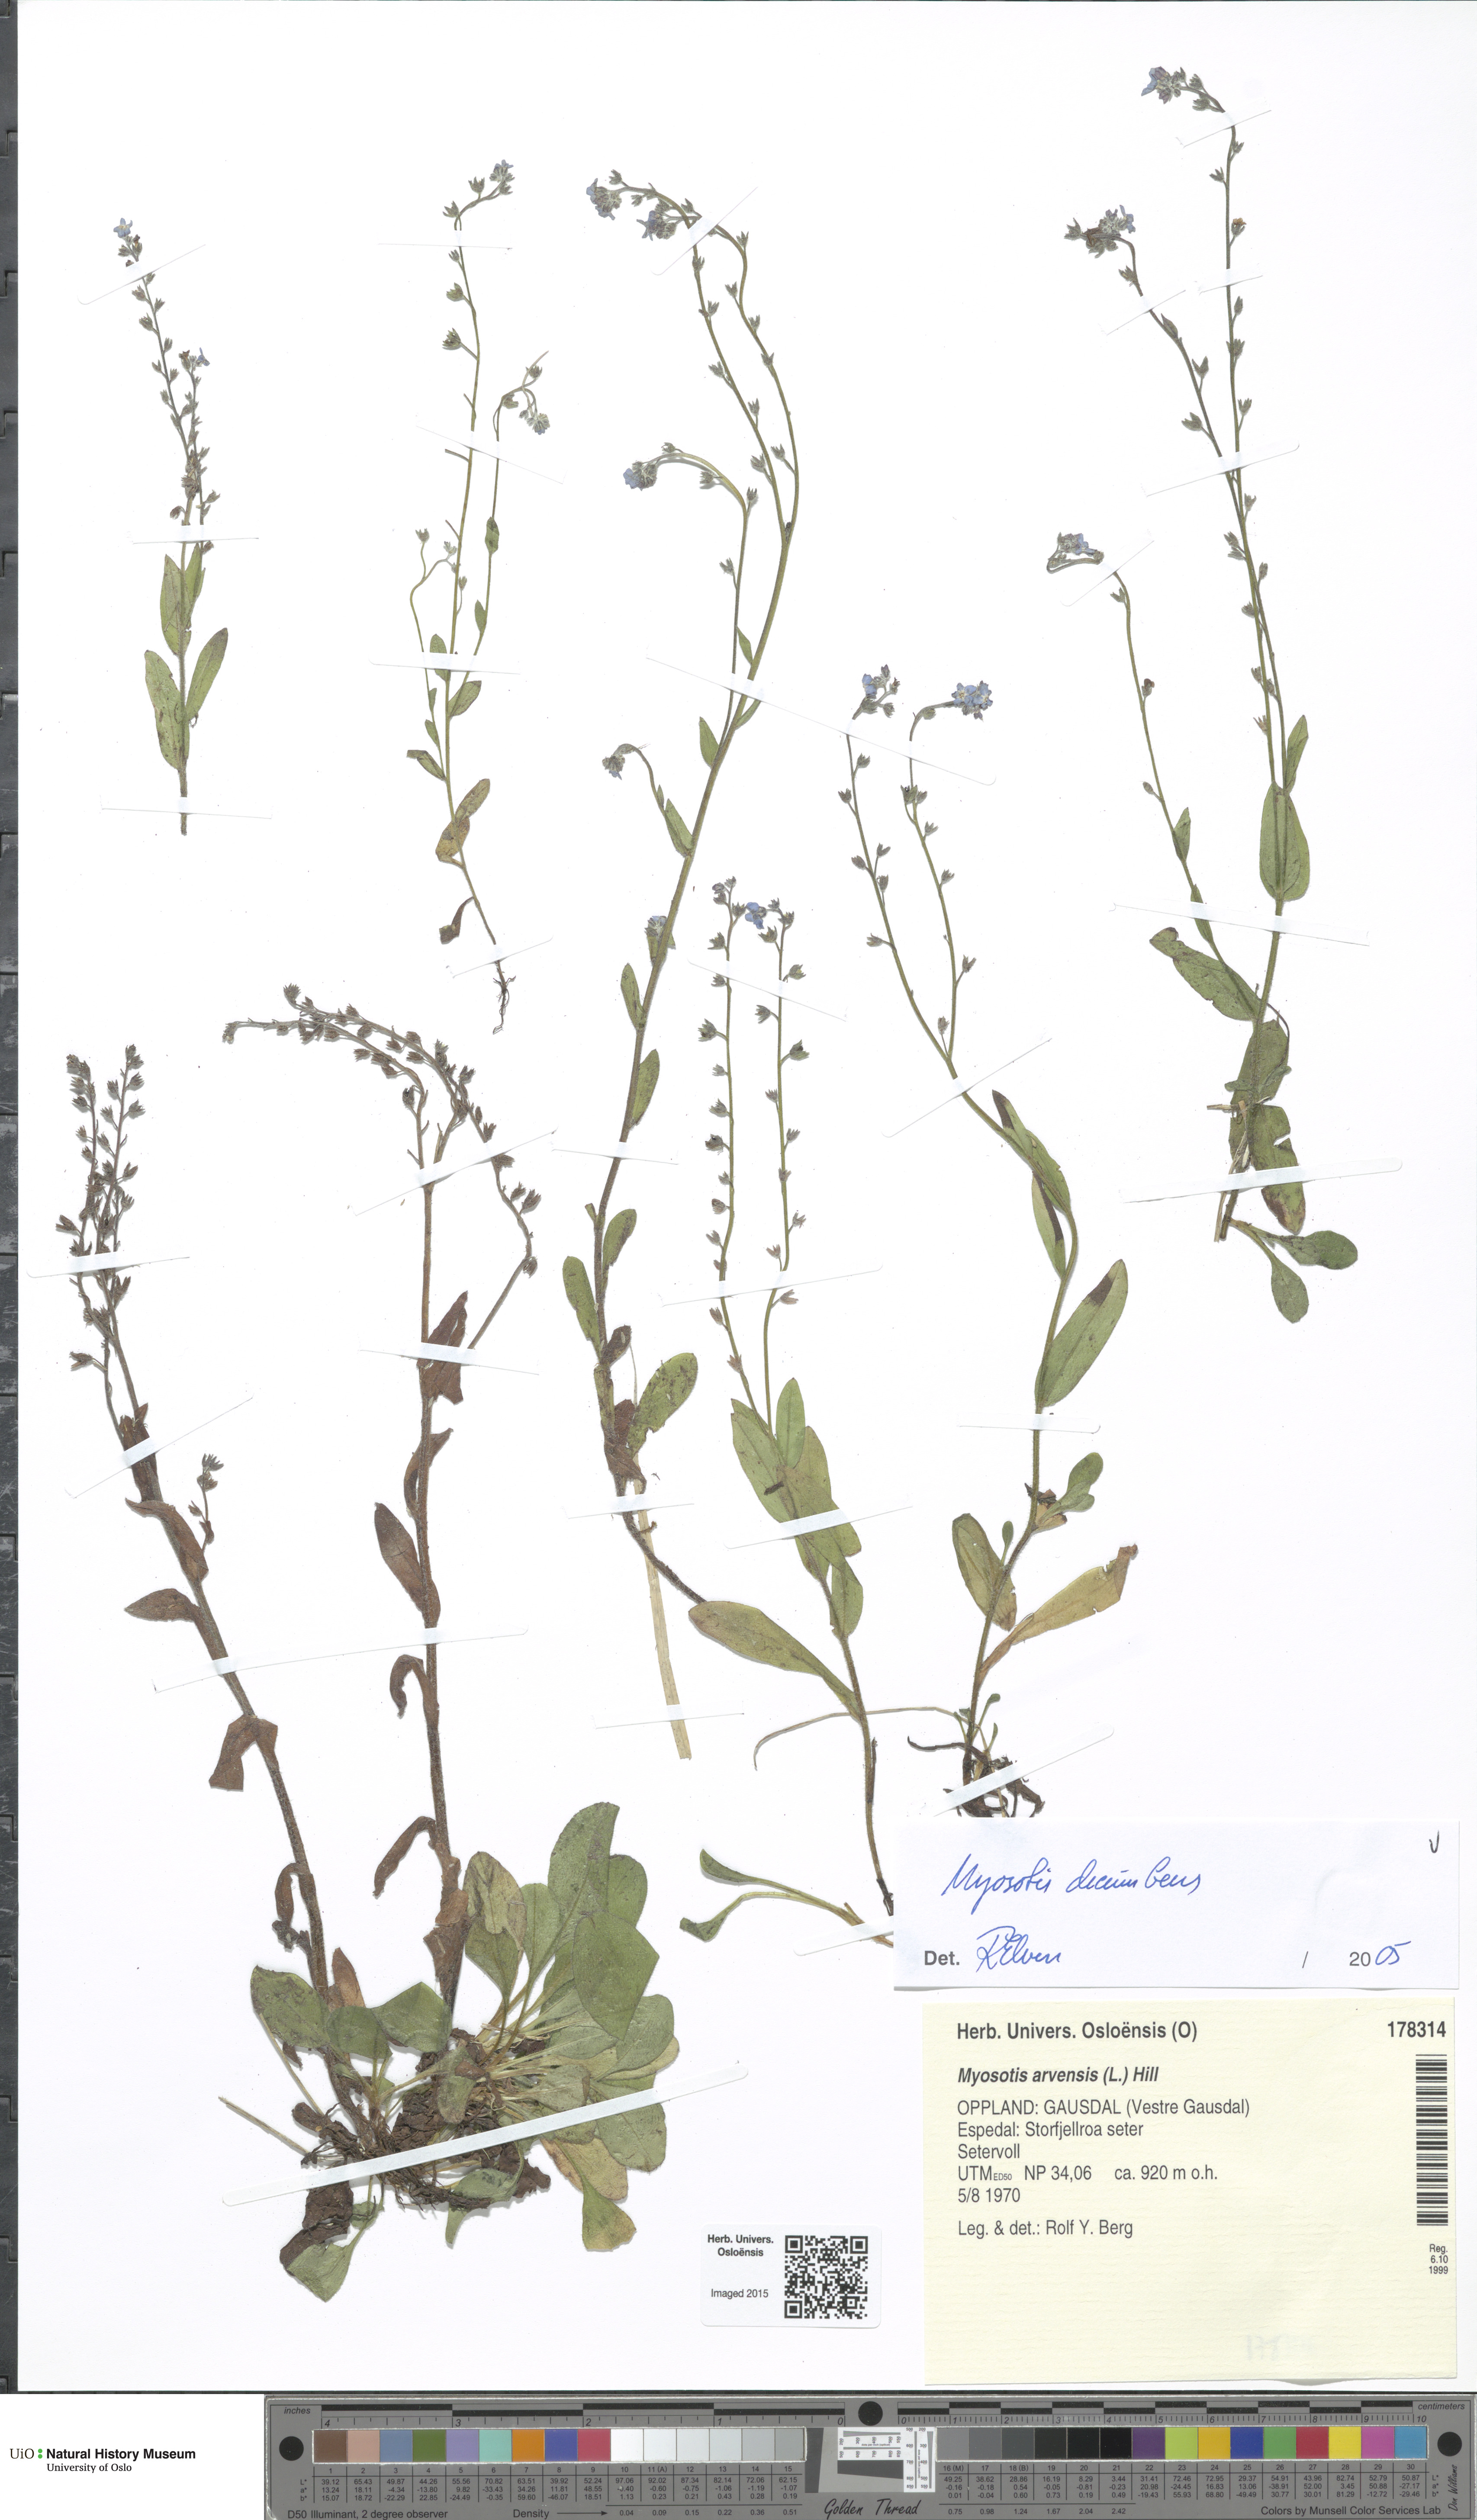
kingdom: Plantae
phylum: Tracheophyta
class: Magnoliopsida
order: Boraginales
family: Boraginaceae
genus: Myosotis
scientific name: Myosotis decumbens
